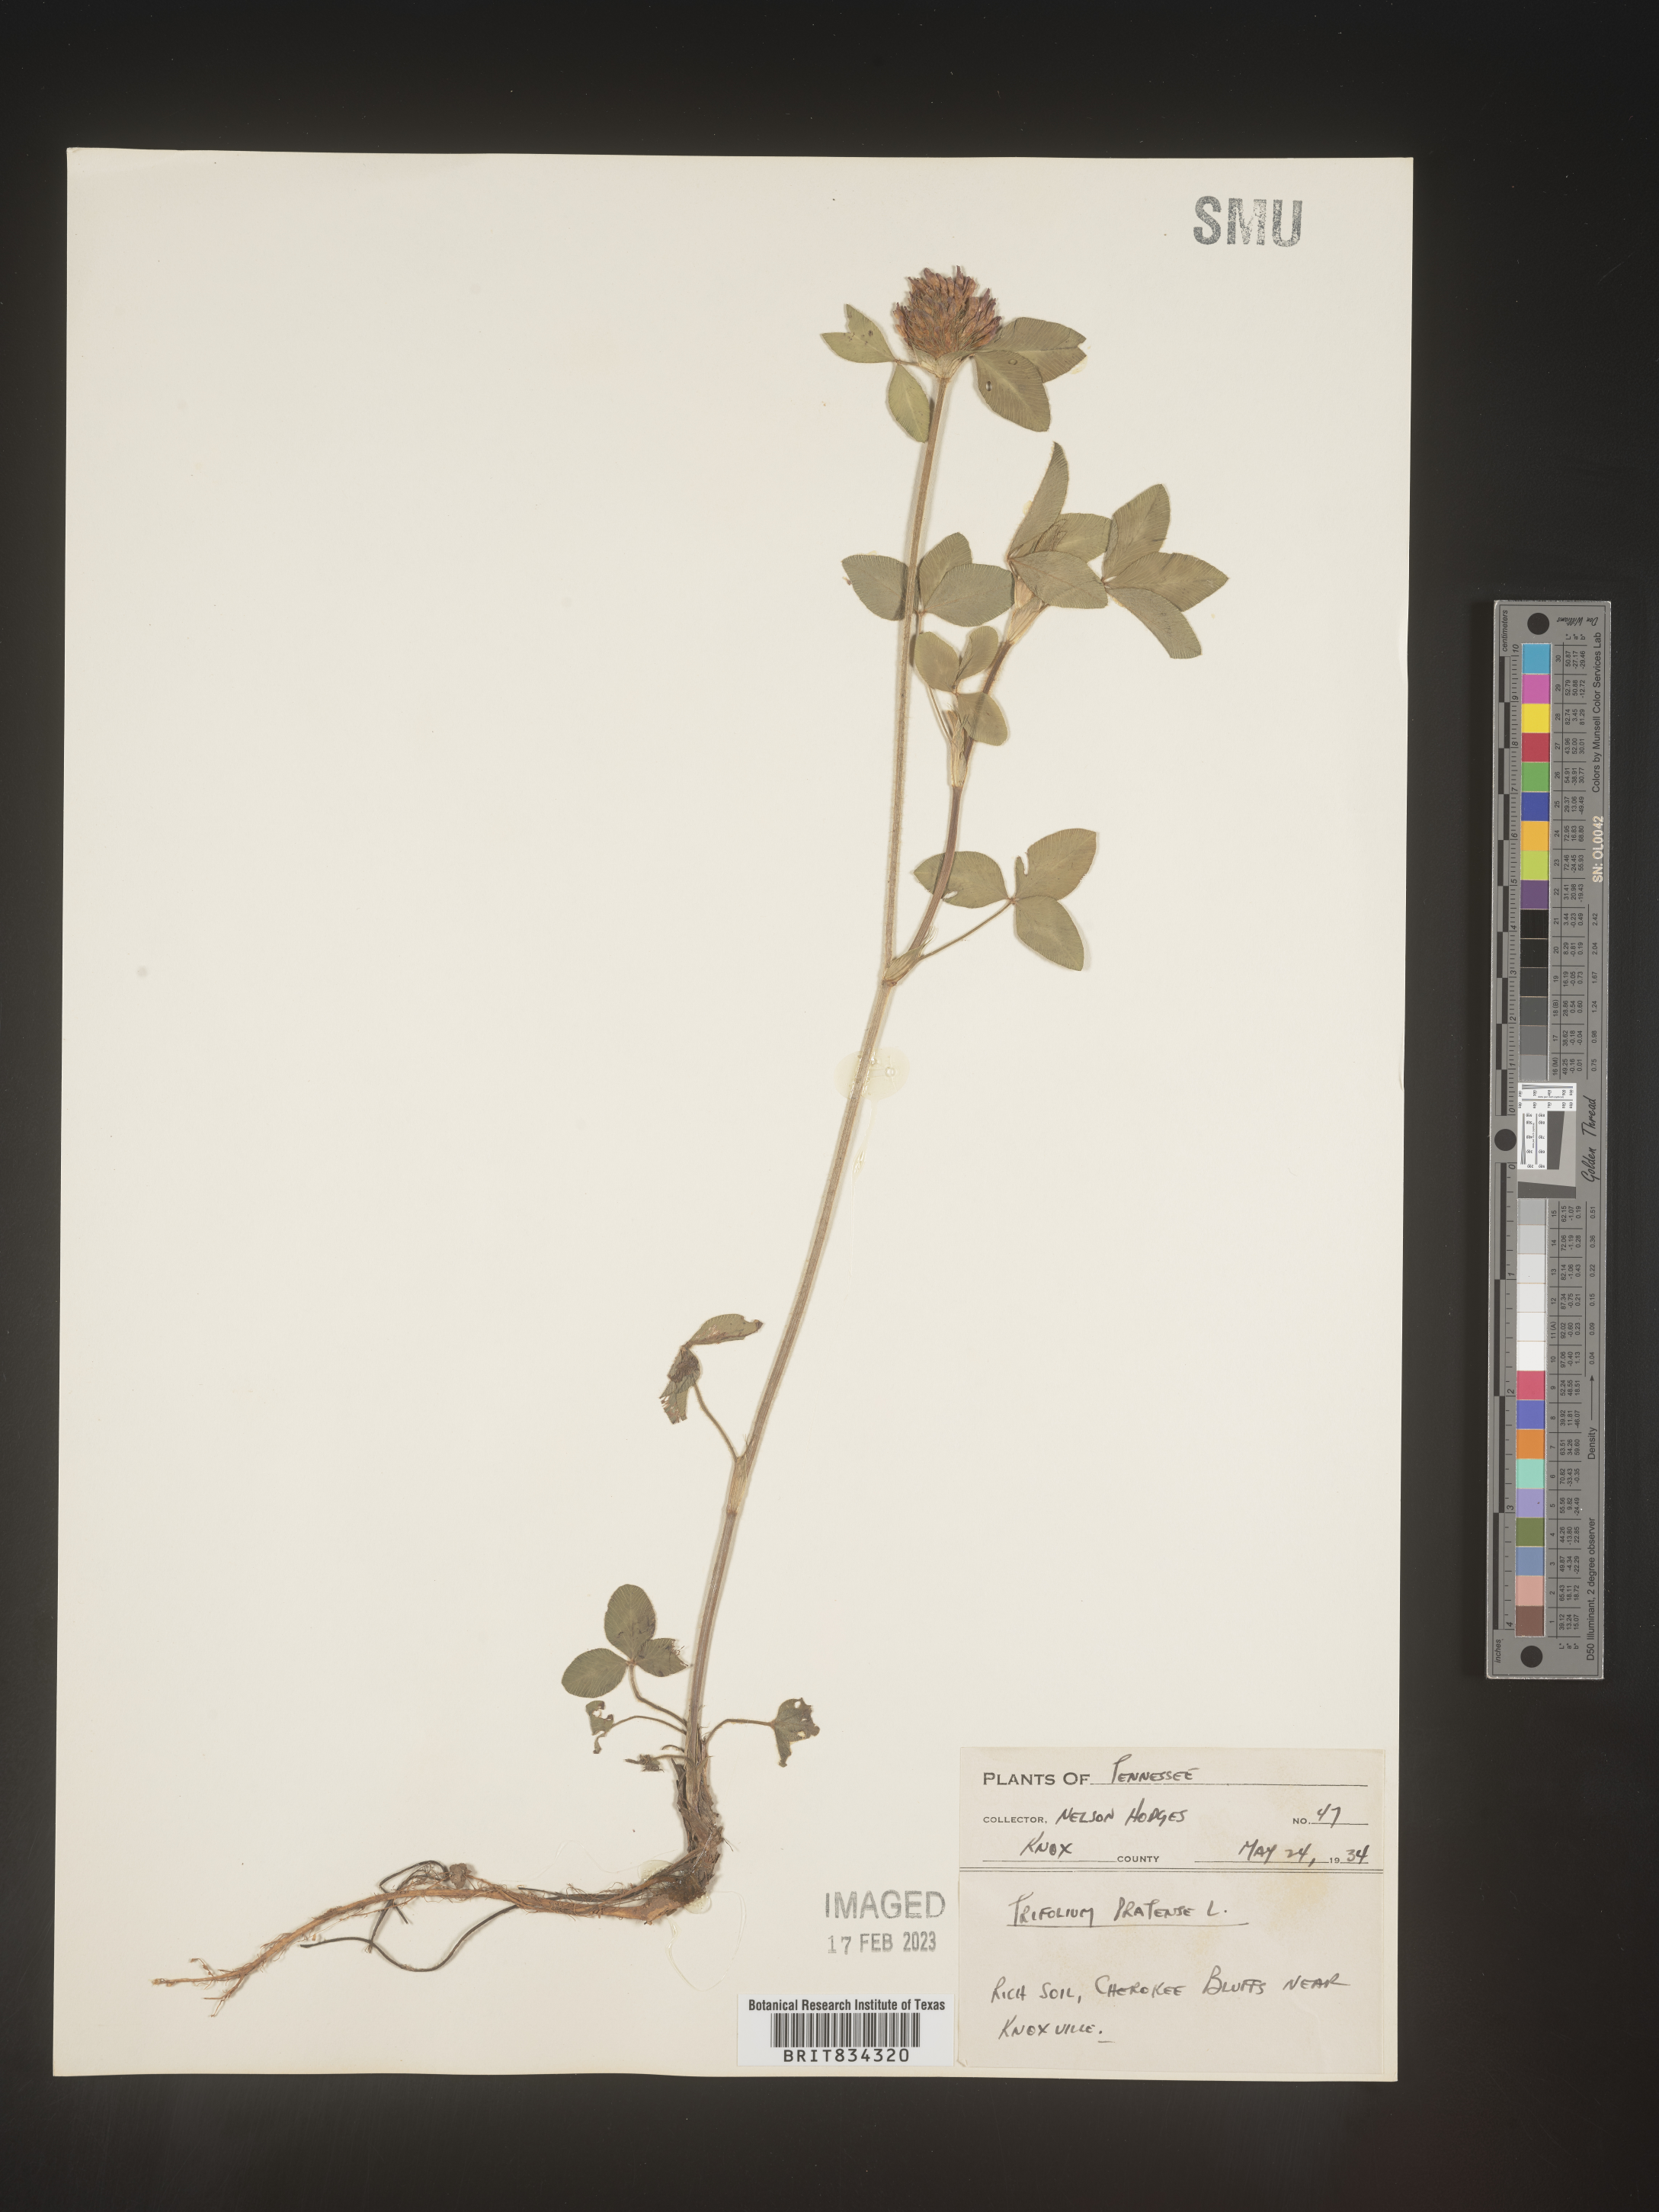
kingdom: Plantae
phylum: Tracheophyta
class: Magnoliopsida
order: Fabales
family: Fabaceae
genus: Trifolium
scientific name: Trifolium pratense
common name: Red clover
